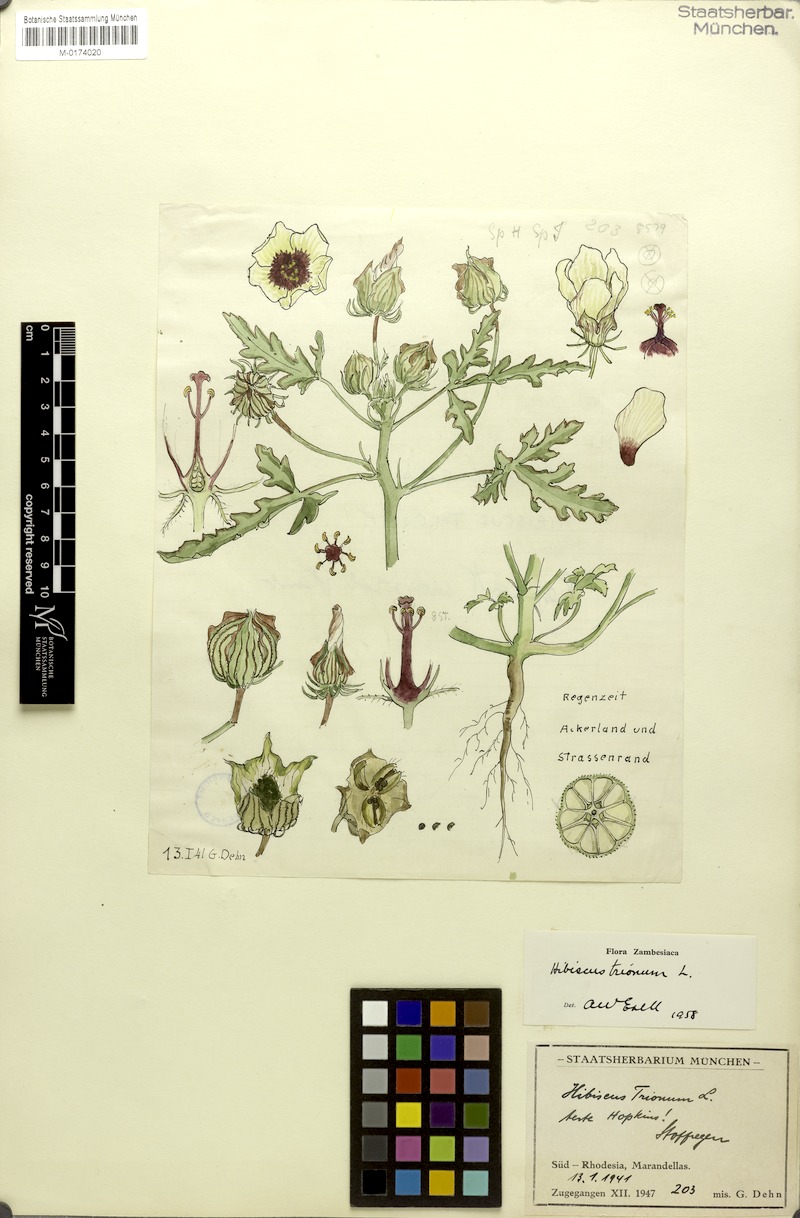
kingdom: Plantae
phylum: Tracheophyta
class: Magnoliopsida
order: Malvales
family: Malvaceae
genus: Hibiscus
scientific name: Hibiscus trionum
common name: Bladder ketmia
